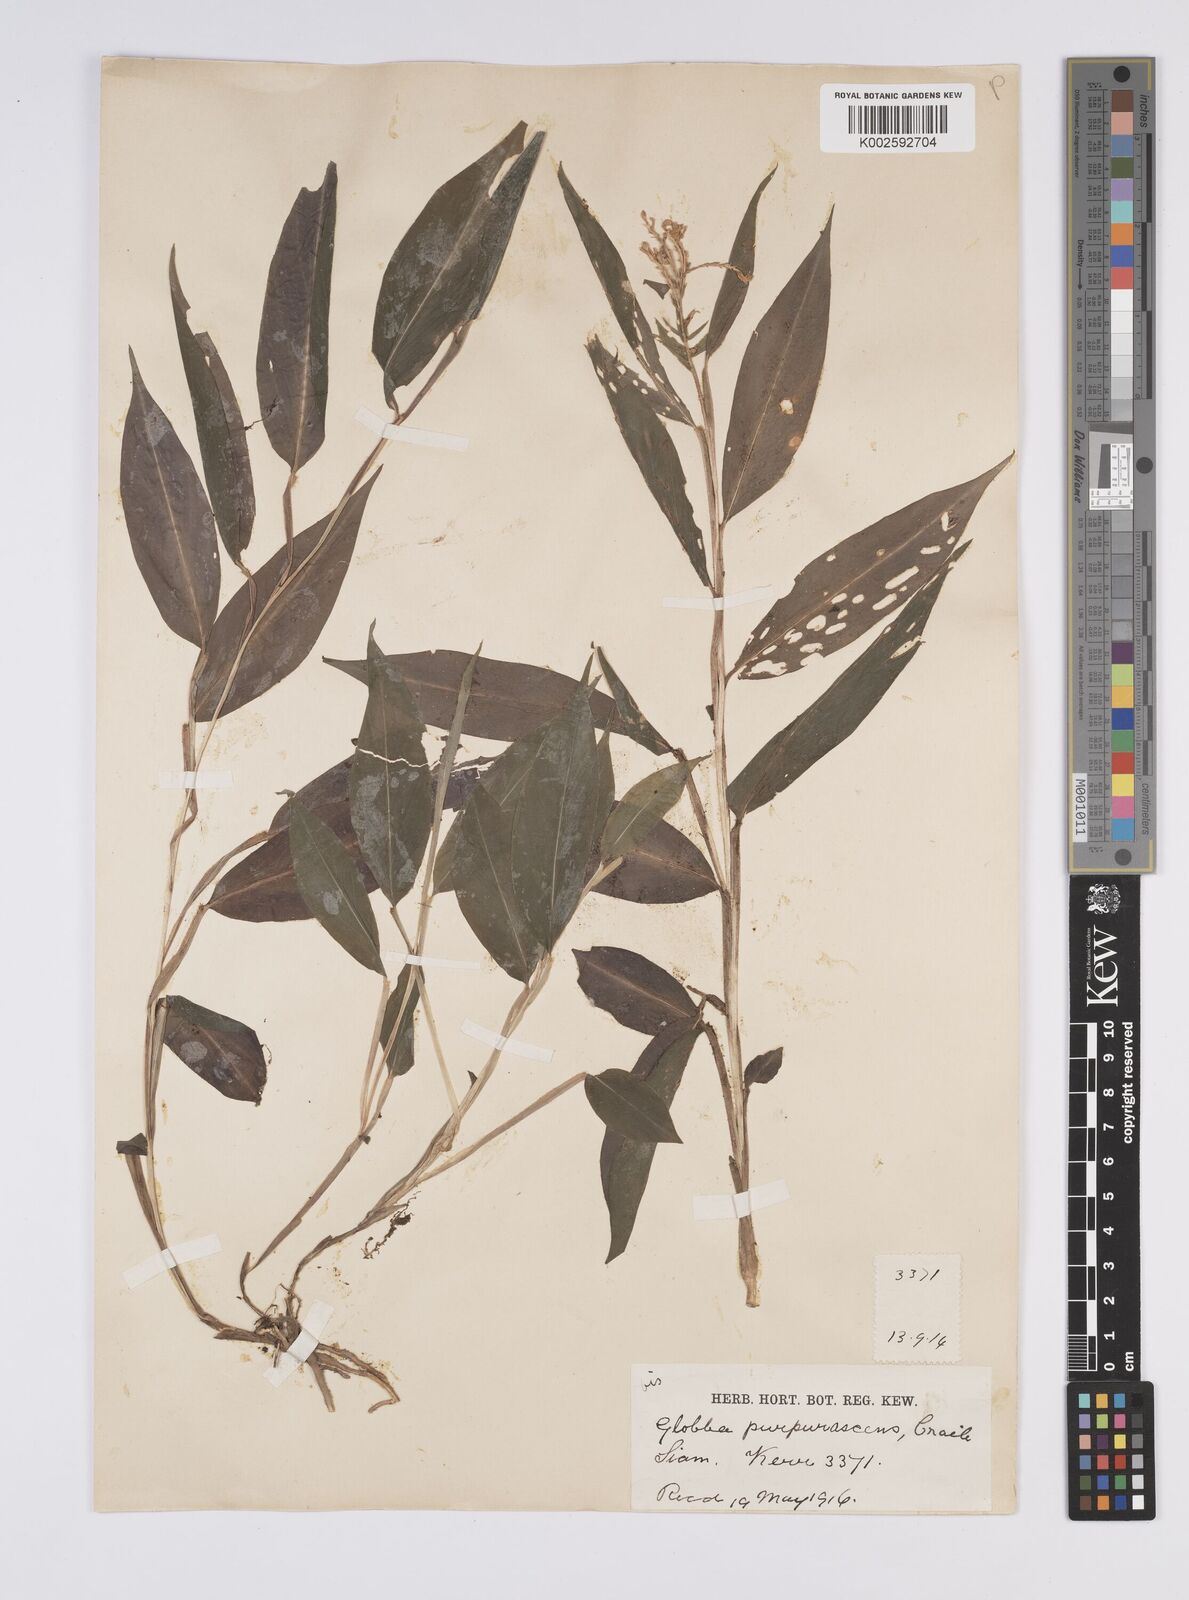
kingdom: Plantae
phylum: Tracheophyta
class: Liliopsida
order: Zingiberales
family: Zingiberaceae
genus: Globba
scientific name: Globba purpurascens
